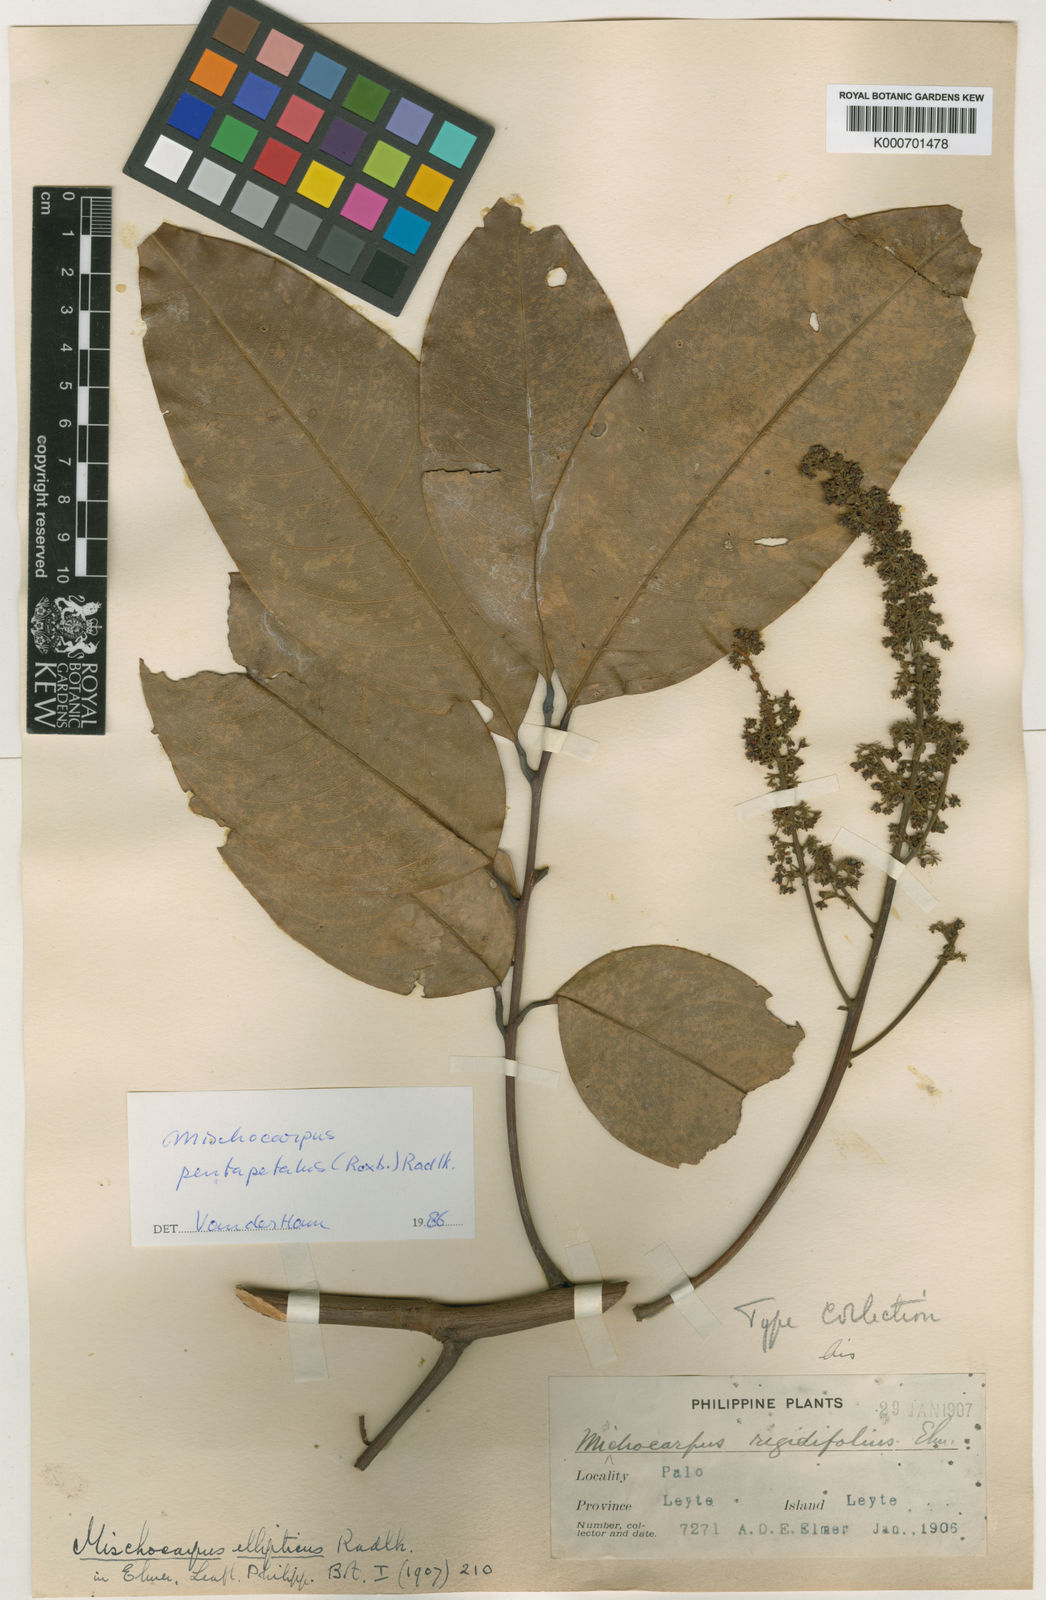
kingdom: Plantae
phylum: Tracheophyta
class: Magnoliopsida
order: Sapindales
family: Sapindaceae
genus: Mischocarpus
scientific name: Mischocarpus pentapetalus
